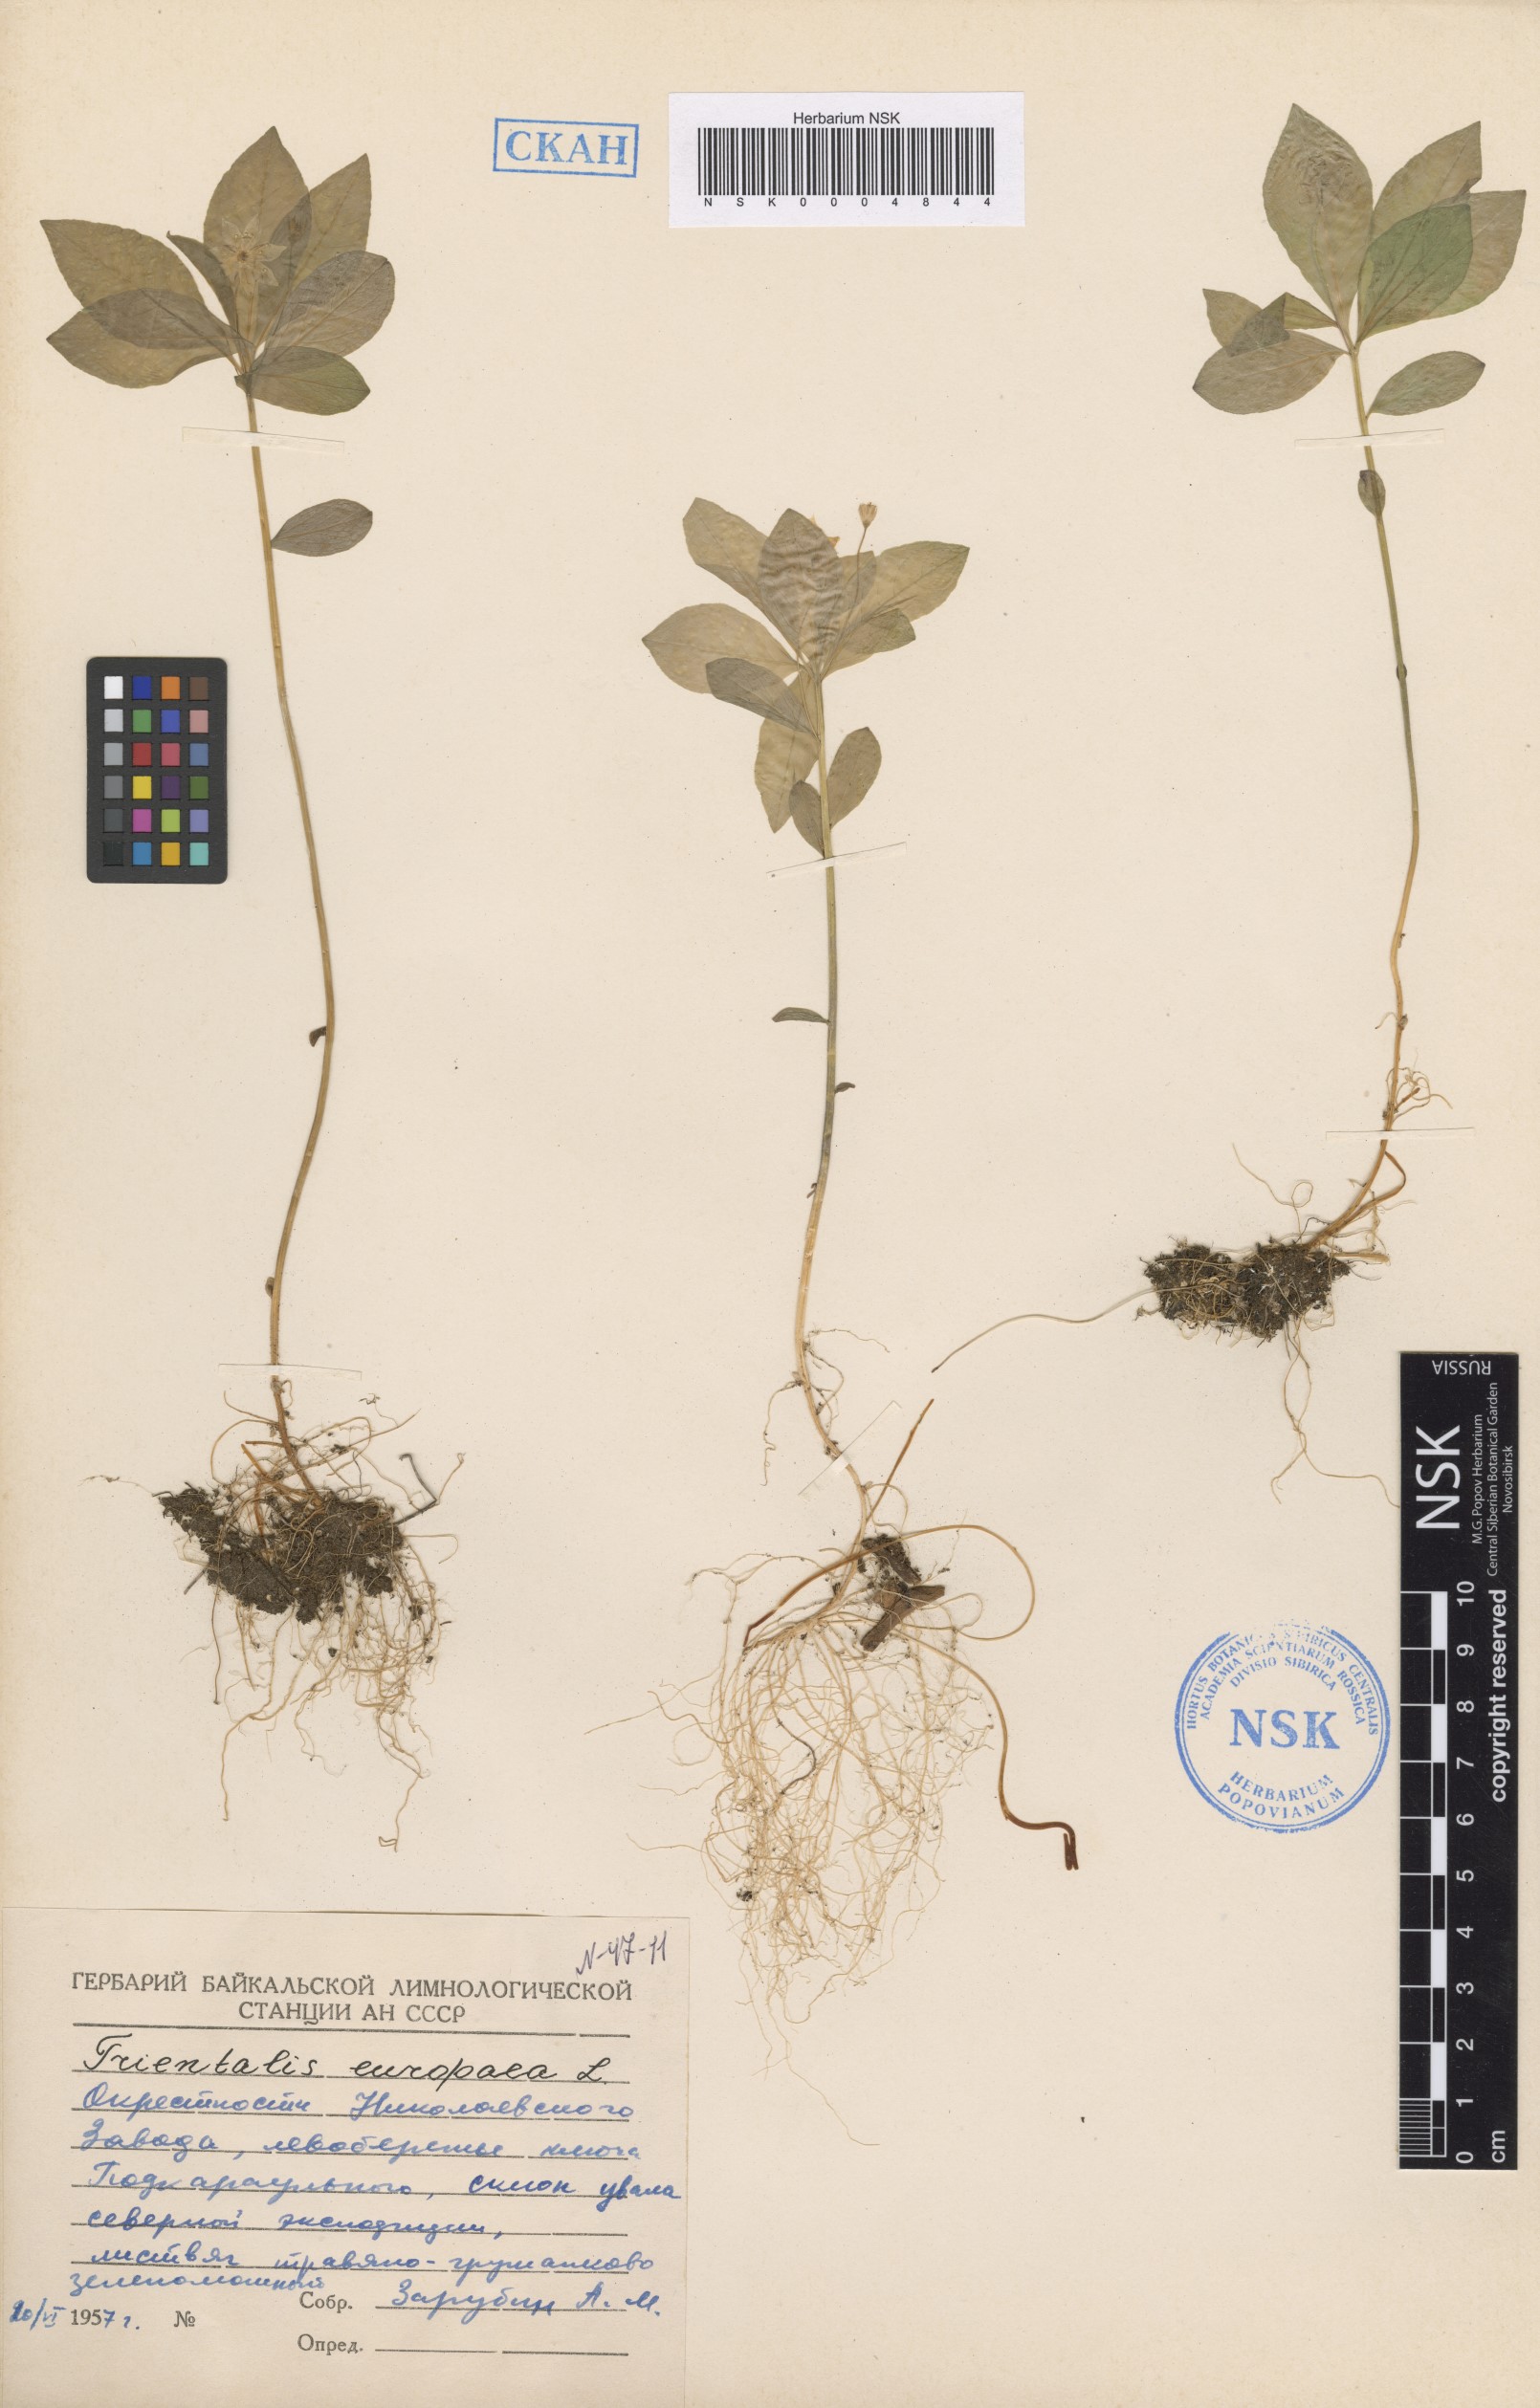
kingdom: Plantae
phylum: Tracheophyta
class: Magnoliopsida
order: Ericales
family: Primulaceae
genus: Lysimachia
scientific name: Lysimachia europaea
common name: Arctic starflower
